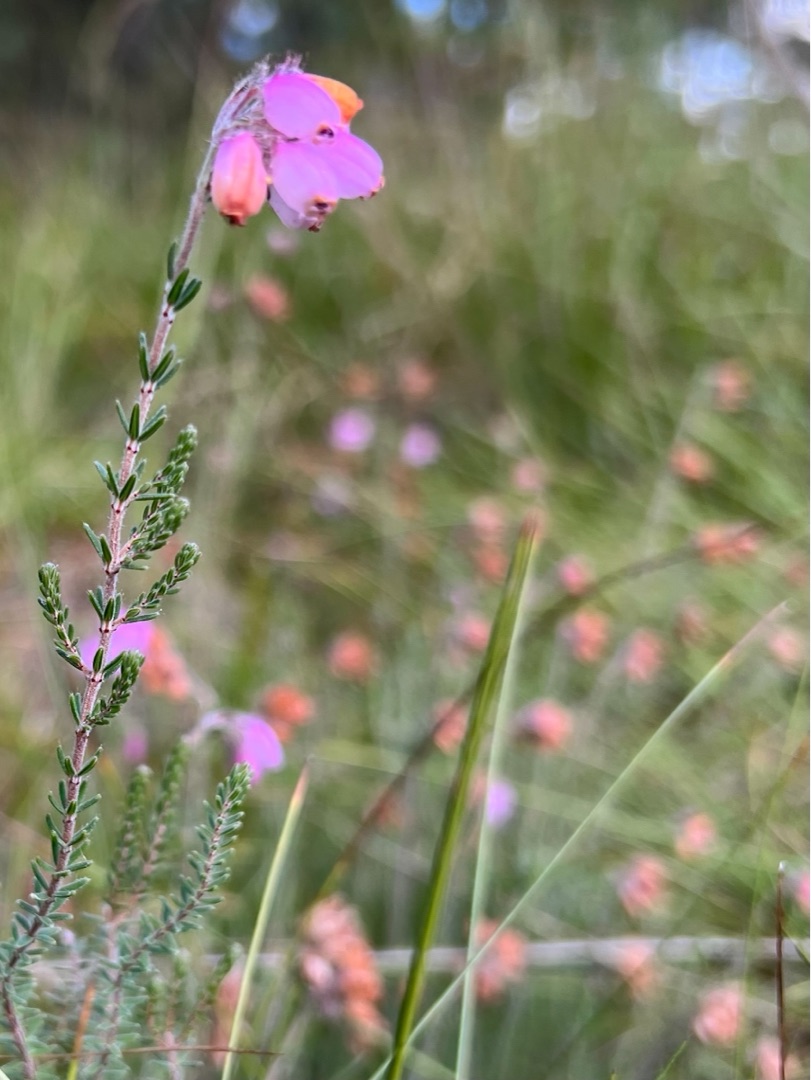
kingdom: Plantae
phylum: Tracheophyta
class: Magnoliopsida
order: Ericales
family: Ericaceae
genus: Erica
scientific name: Erica tetralix
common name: Klokkelyng
